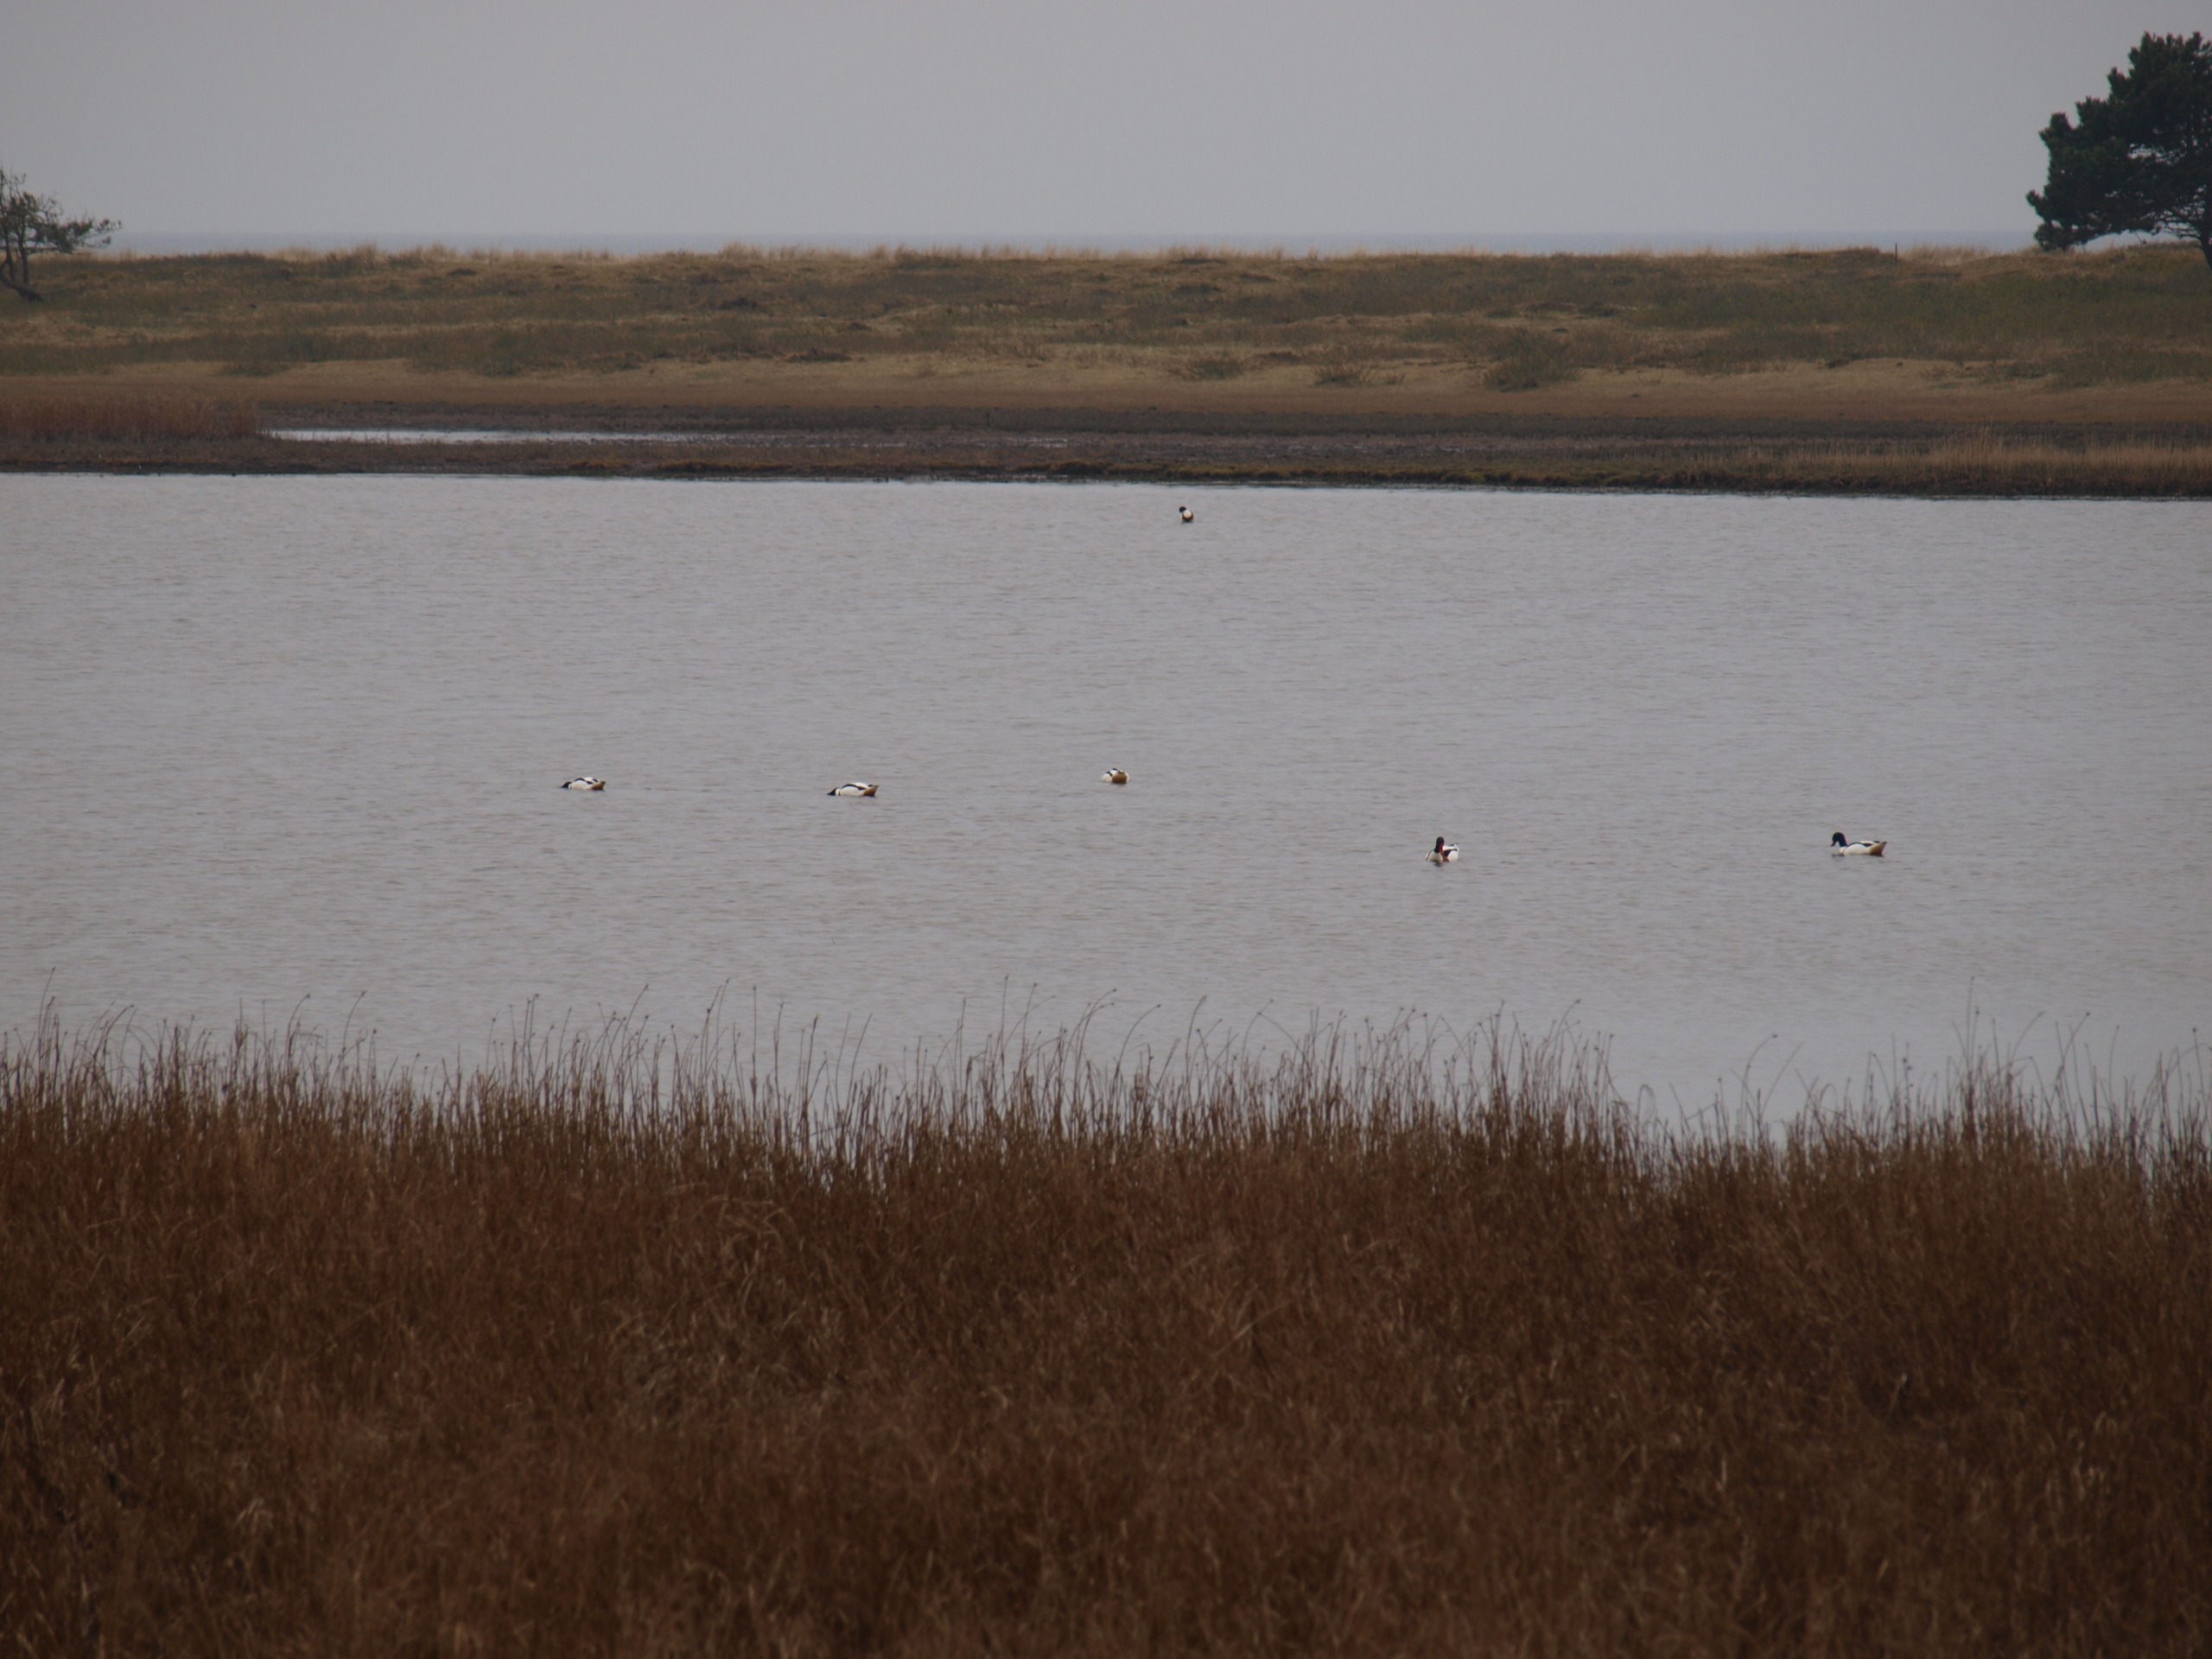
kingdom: Animalia
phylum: Chordata
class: Aves
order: Anseriformes
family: Anatidae
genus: Tadorna
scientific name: Tadorna tadorna
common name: Gravand
